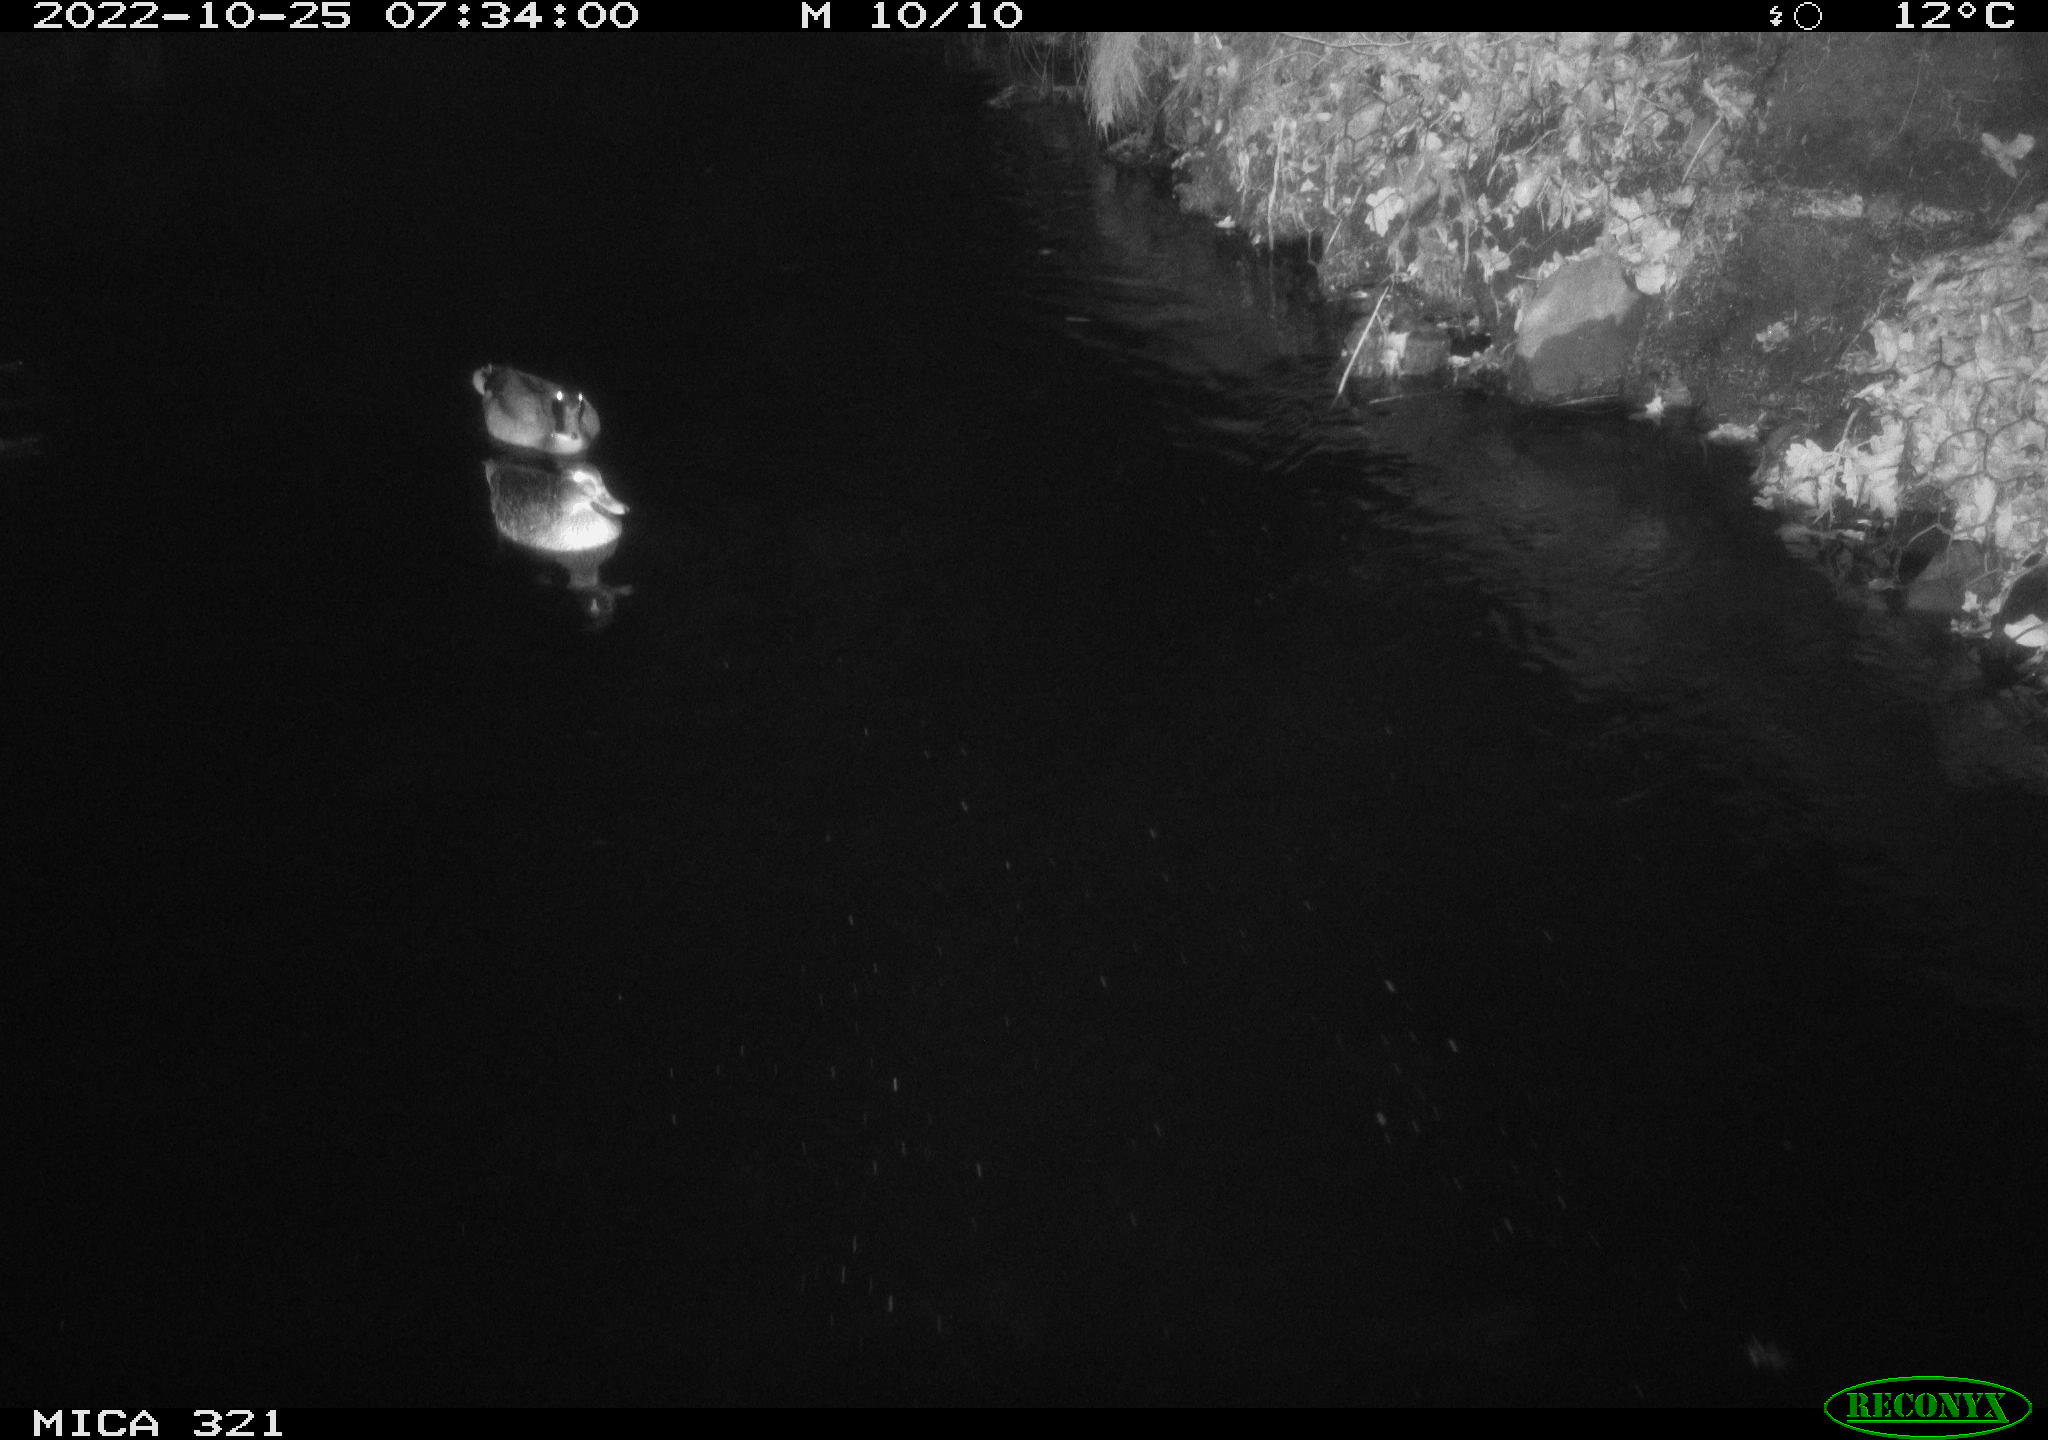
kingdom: Animalia
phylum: Chordata
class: Aves
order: Anseriformes
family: Anatidae
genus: Anas
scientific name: Anas
